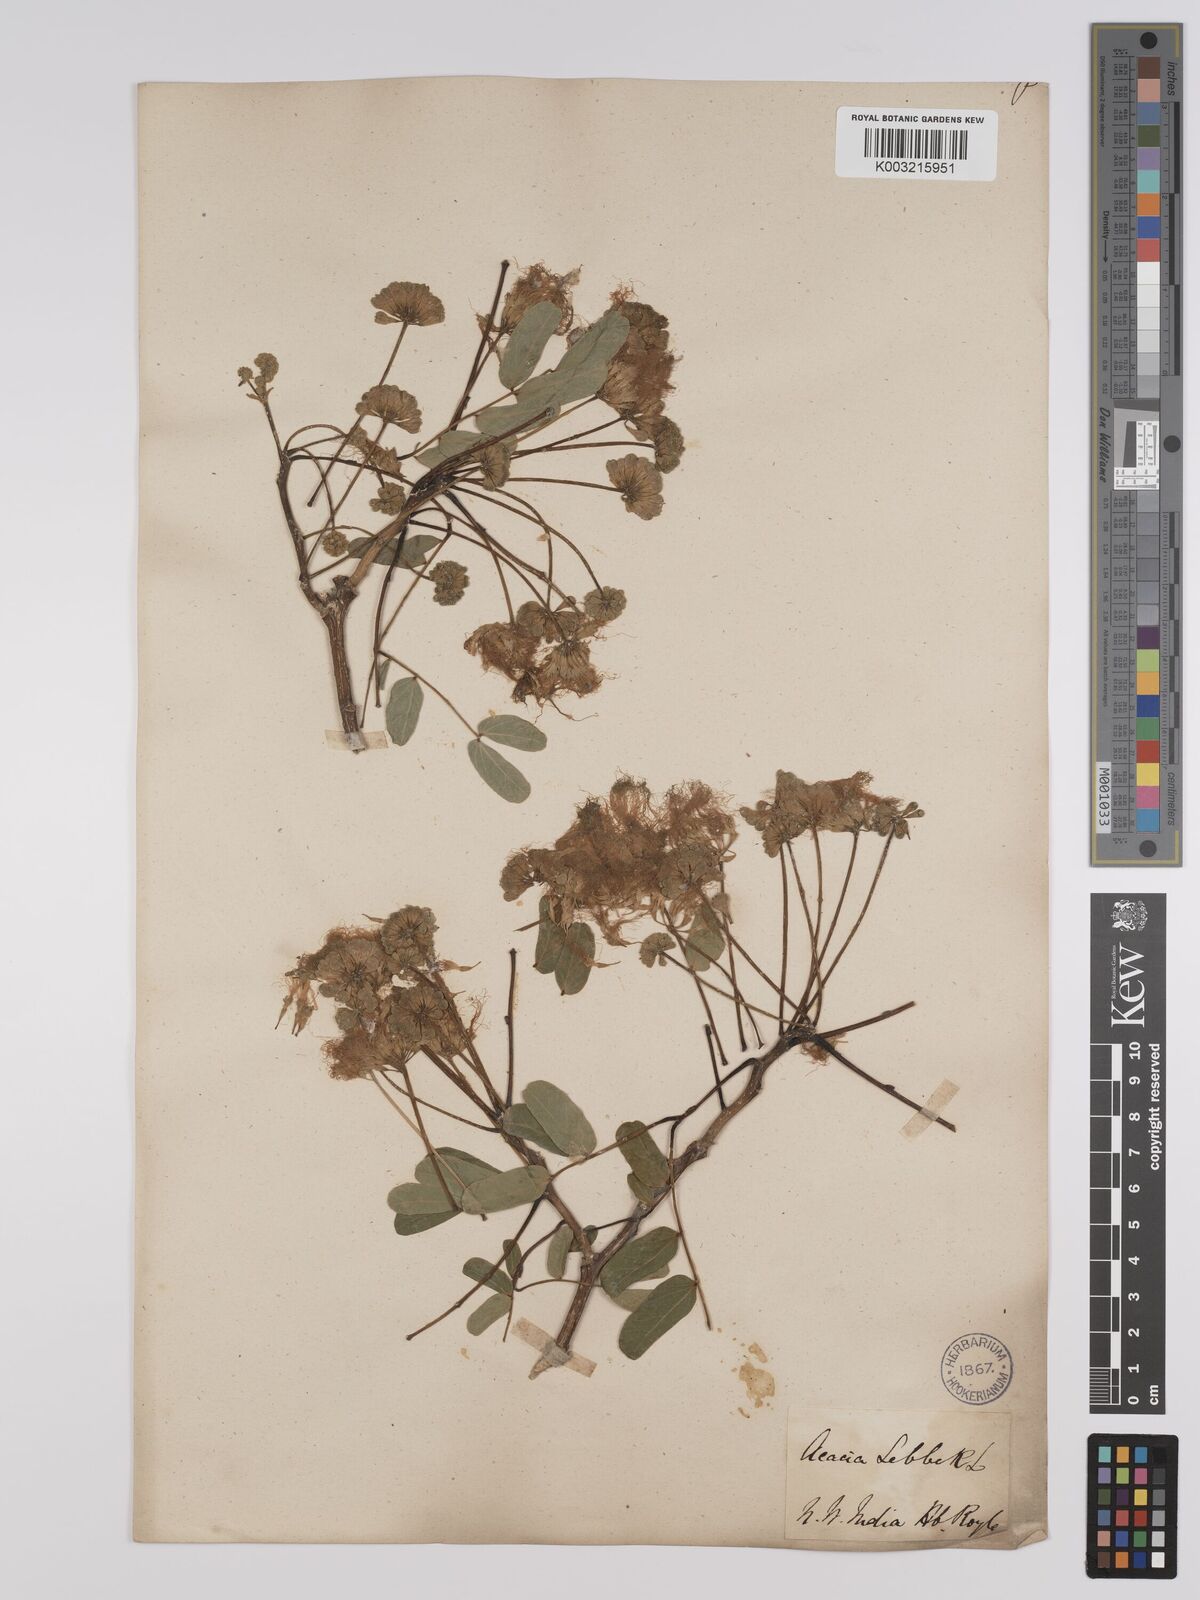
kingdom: Plantae
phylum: Tracheophyta
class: Magnoliopsida
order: Fabales
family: Fabaceae
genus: Albizia
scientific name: Albizia lebbeck
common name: Woman's tongue
